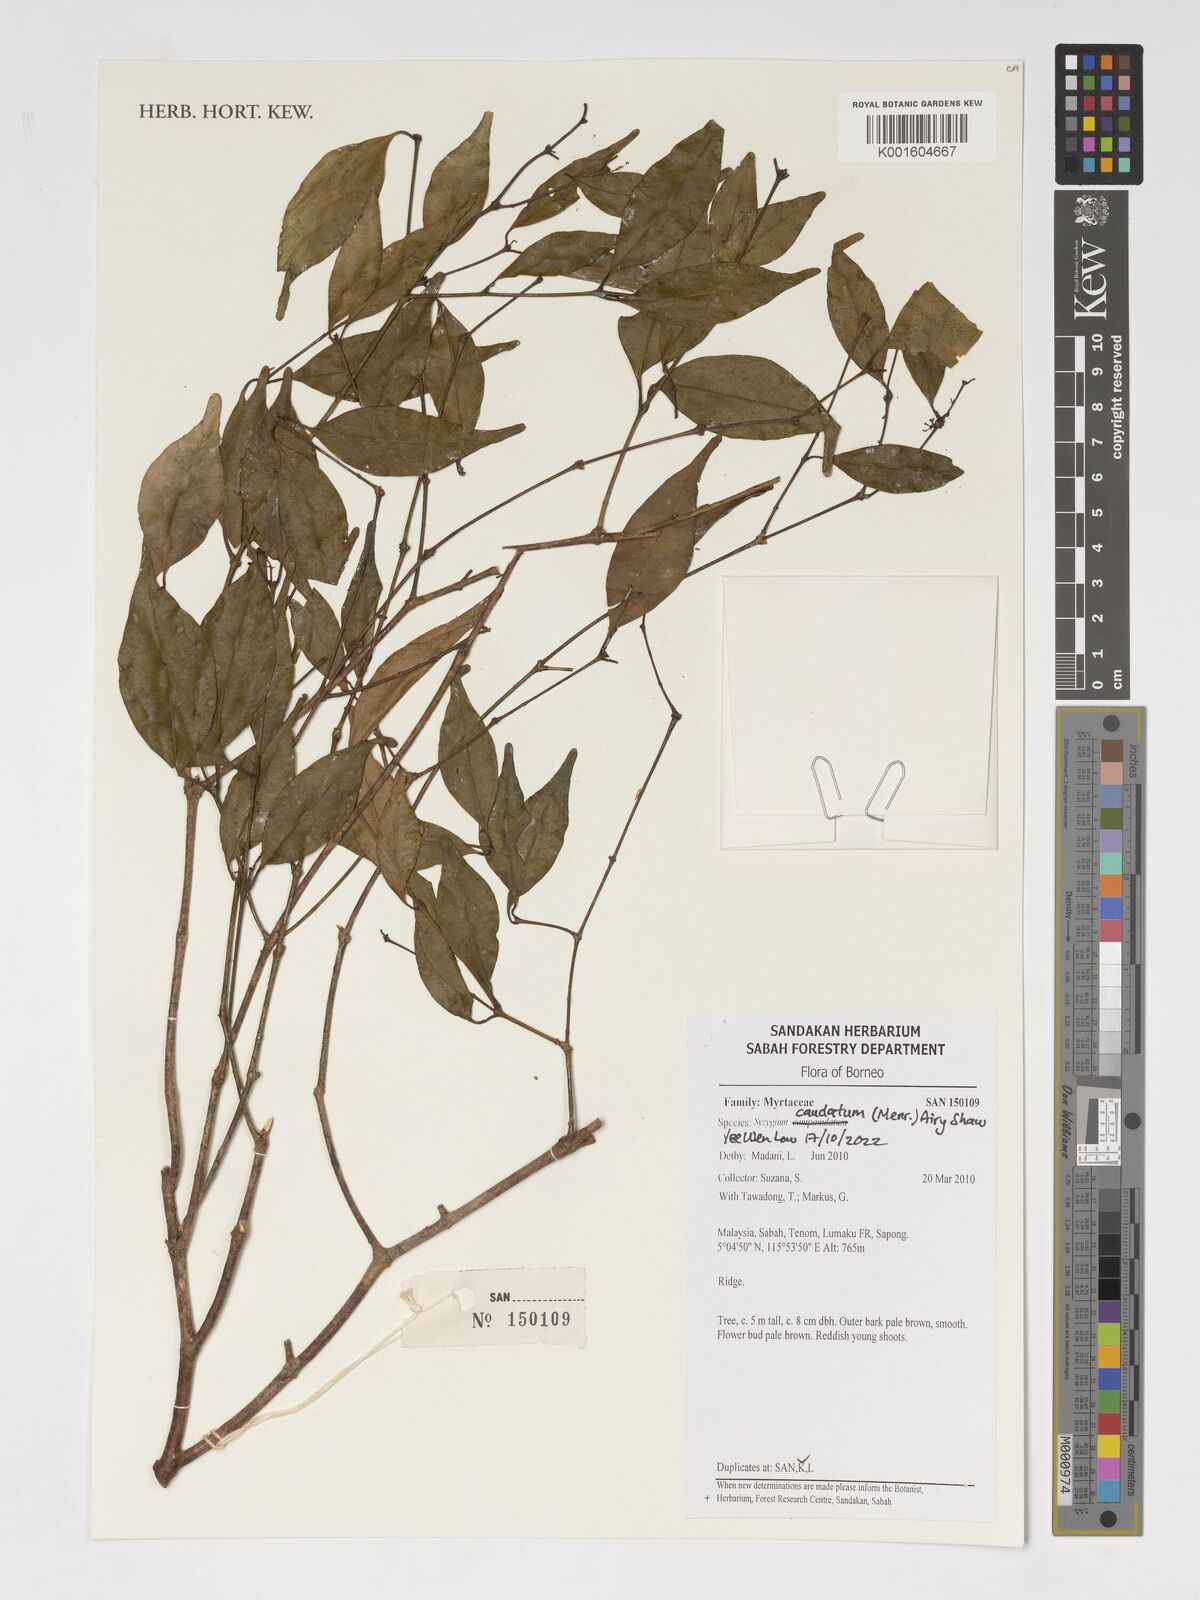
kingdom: Plantae
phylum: Tracheophyta
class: Magnoliopsida
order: Myrtales
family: Myrtaceae
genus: Syzygium
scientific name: Syzygium caudatum
